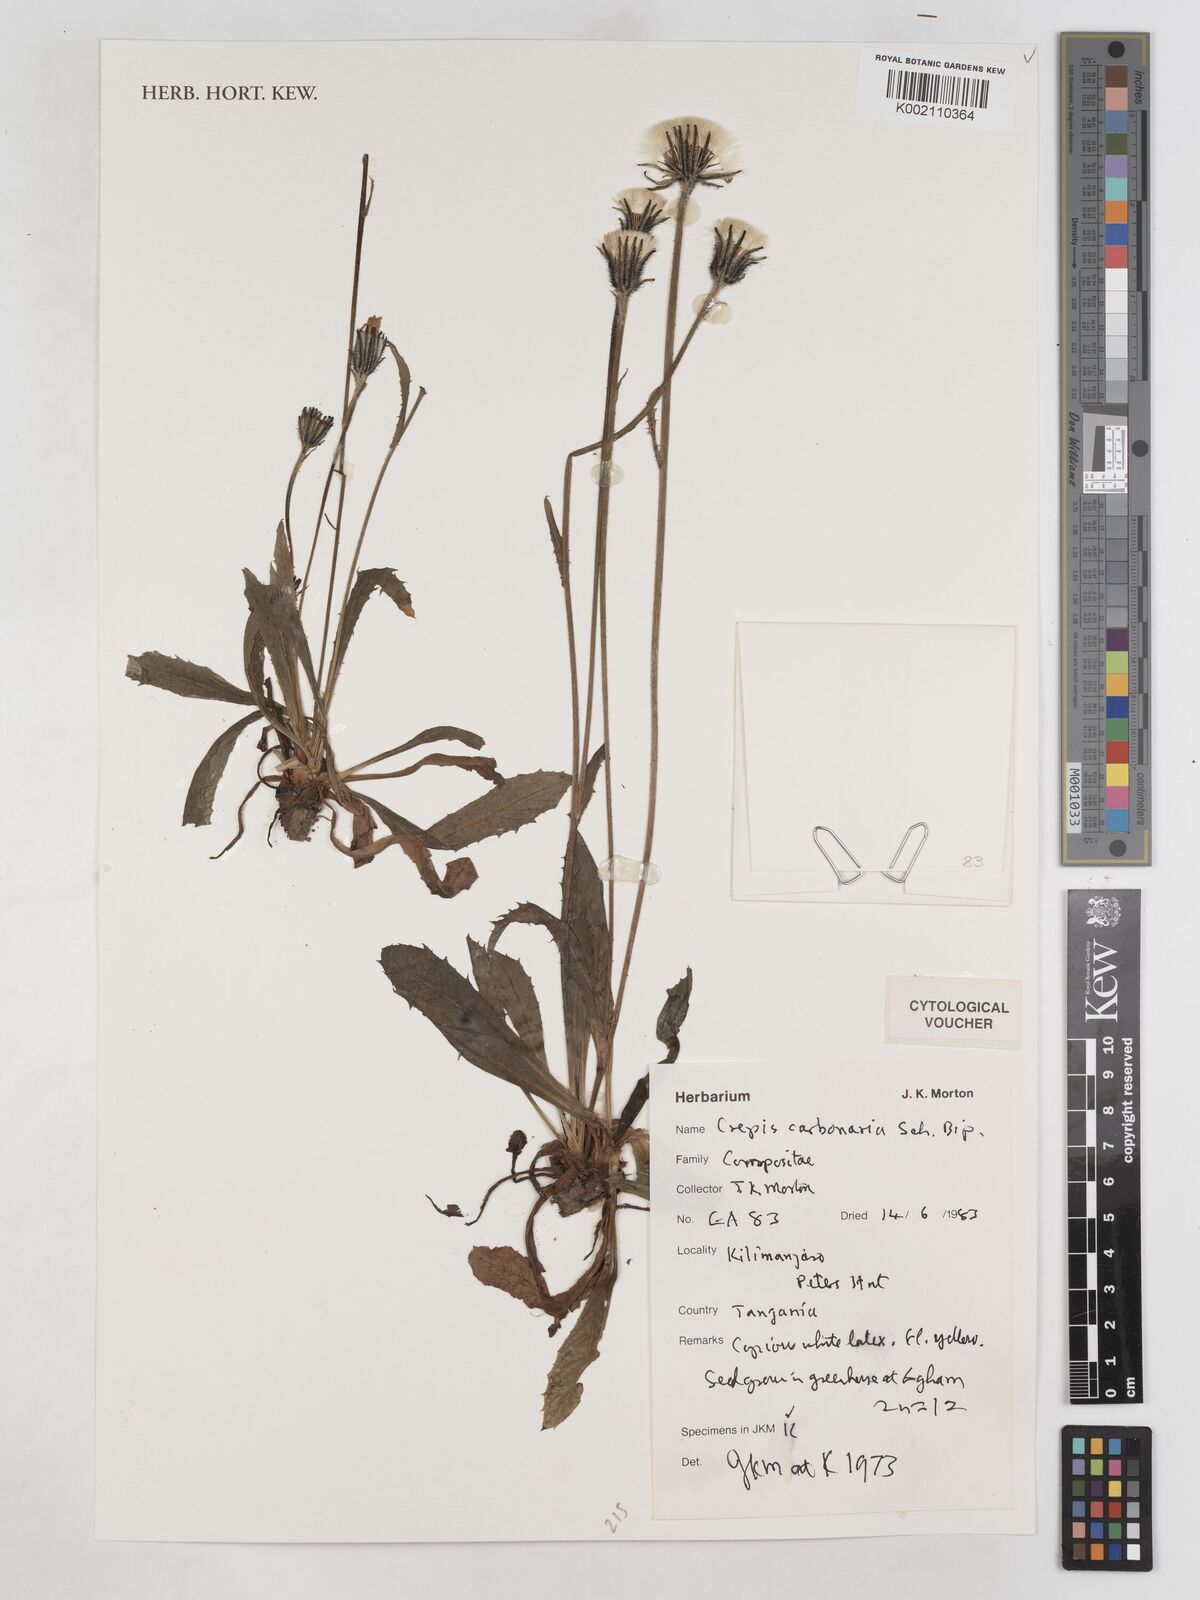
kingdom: Plantae
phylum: Tracheophyta
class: Magnoliopsida
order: Asterales
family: Asteraceae
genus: Crepis
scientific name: Crepis carbonaria
